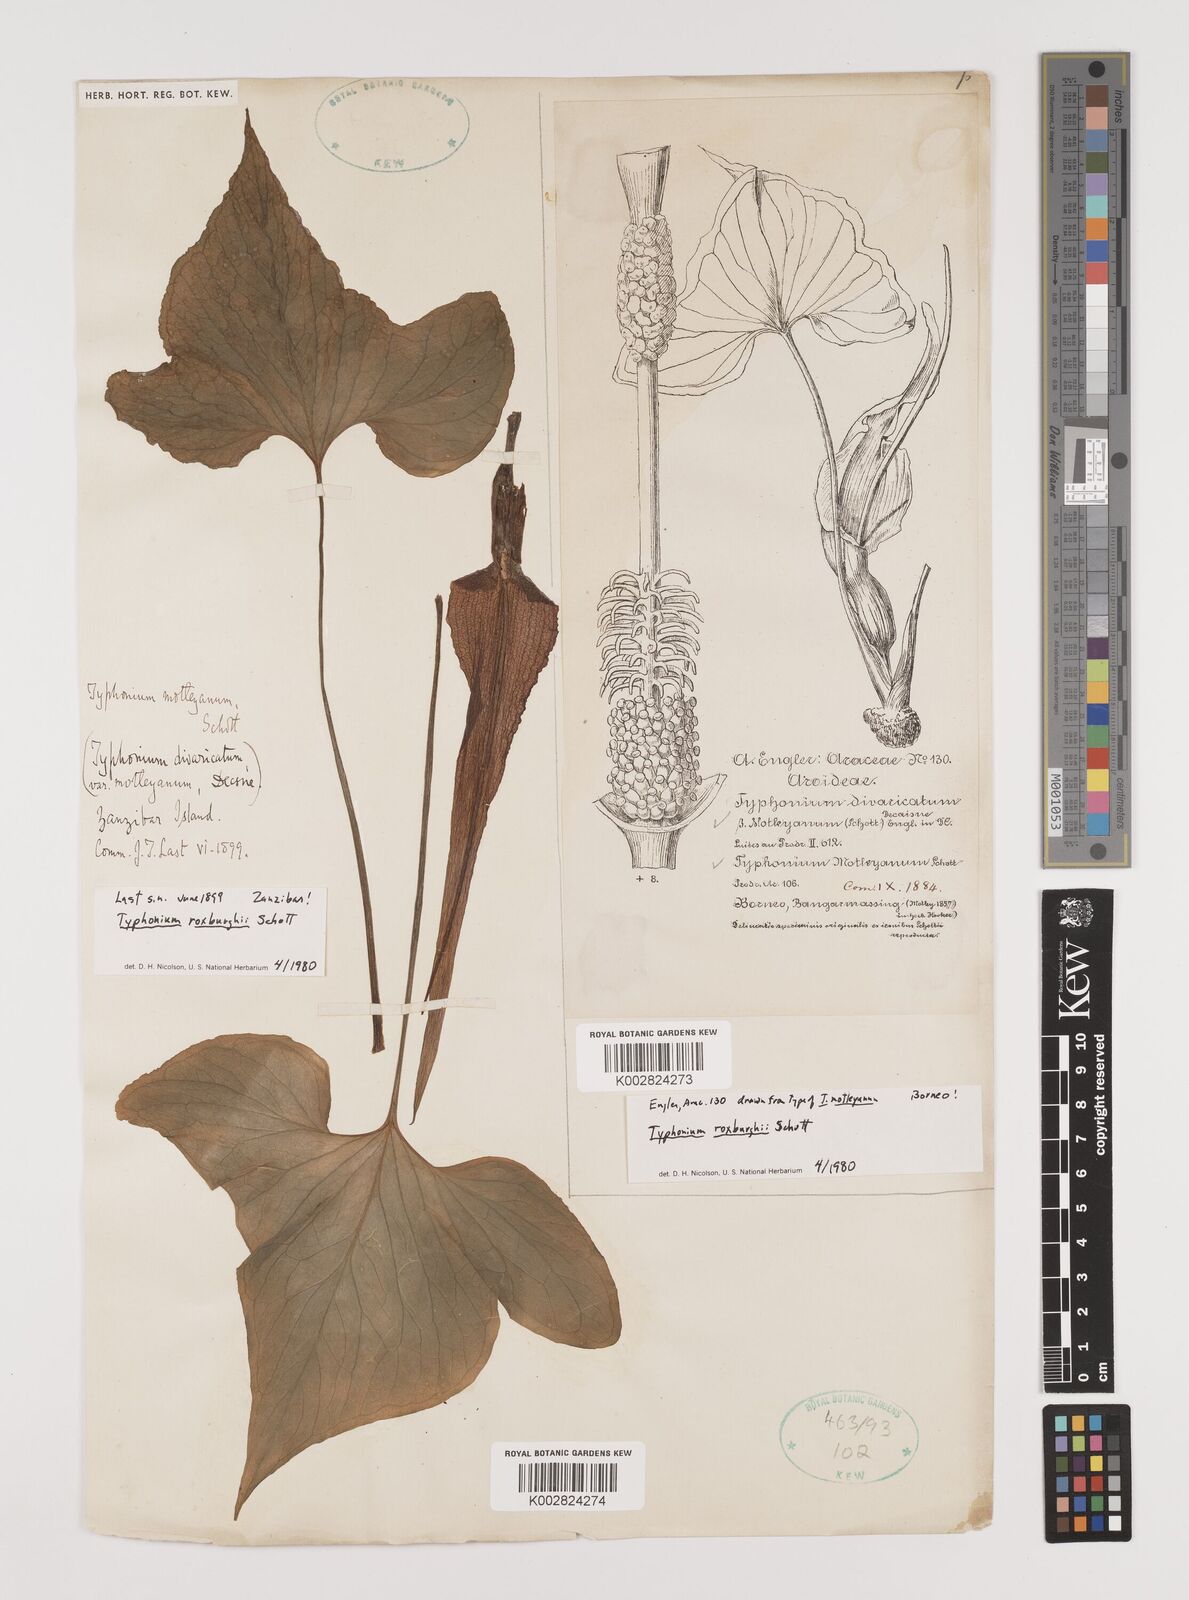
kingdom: Plantae
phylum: Tracheophyta
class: Liliopsida
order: Alismatales
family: Araceae
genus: Typhonium
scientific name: Typhonium roxburghii
